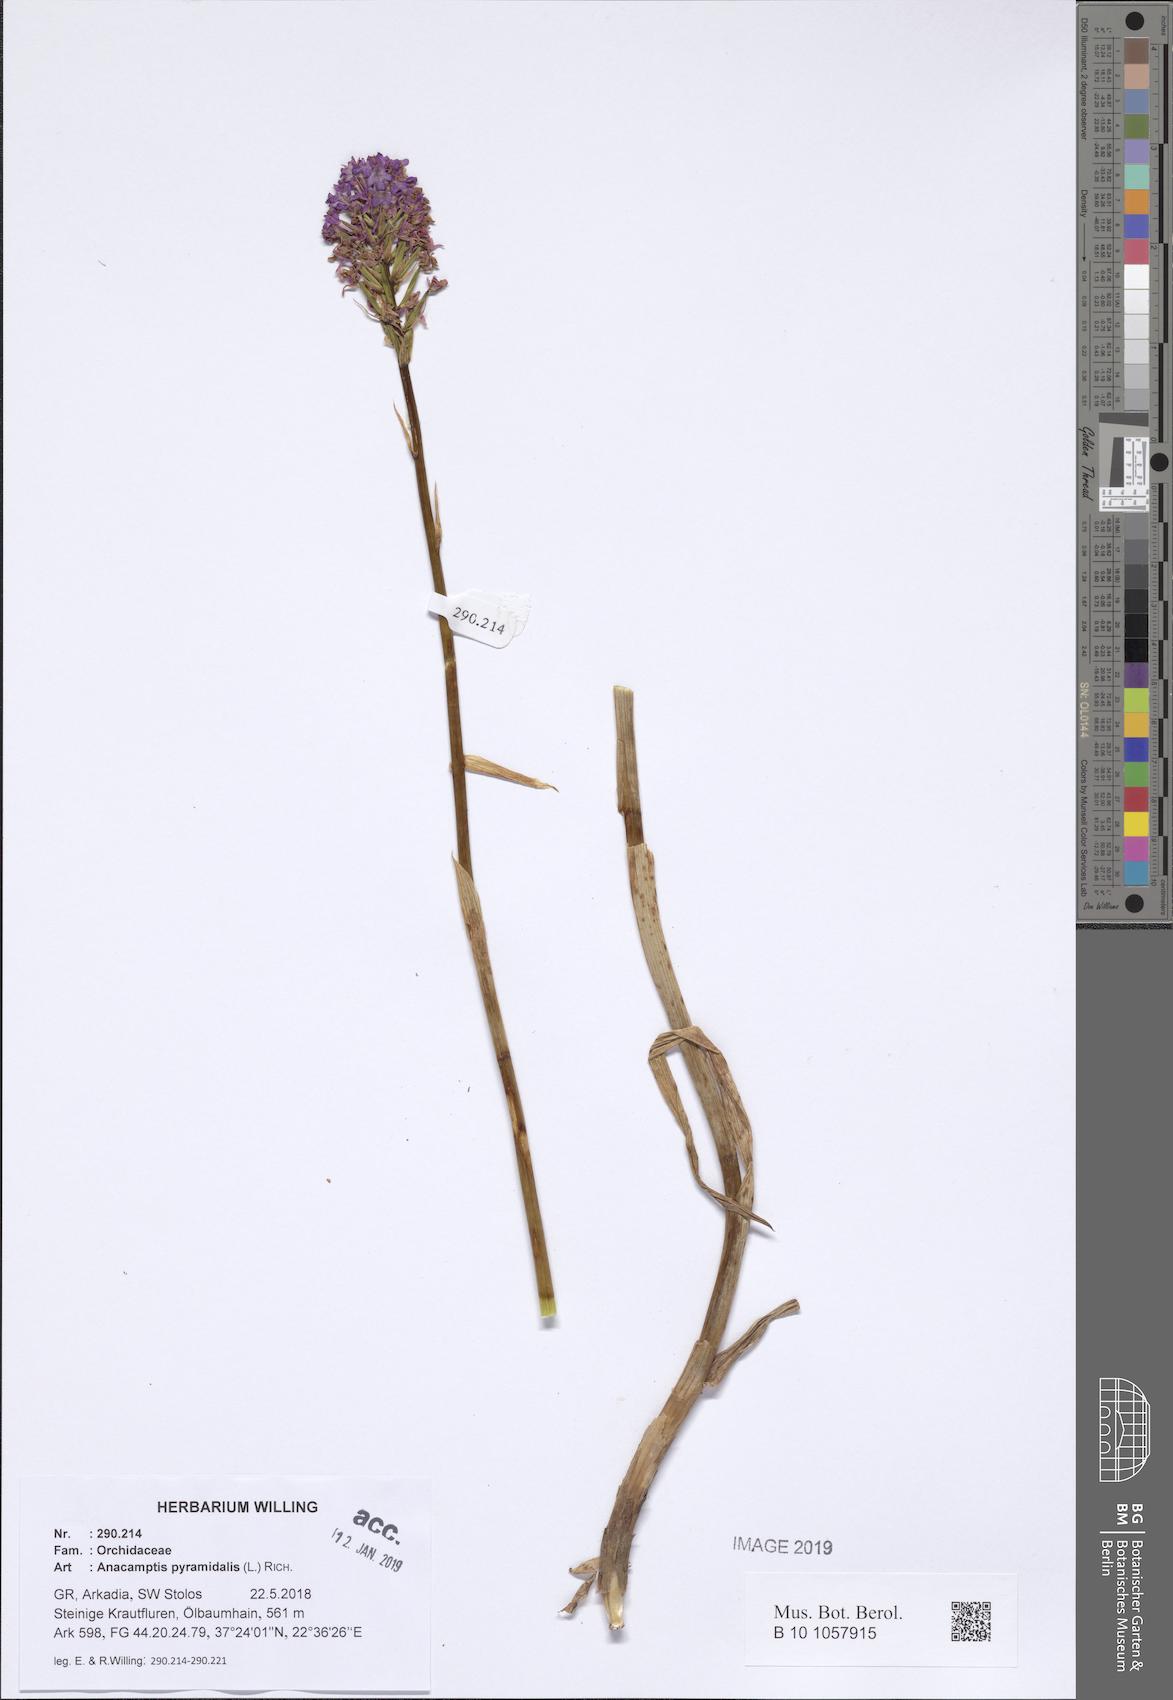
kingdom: Plantae
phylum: Tracheophyta
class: Liliopsida
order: Asparagales
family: Orchidaceae
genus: Anacamptis
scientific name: Anacamptis pyramidalis
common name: Pyramidal orchid
